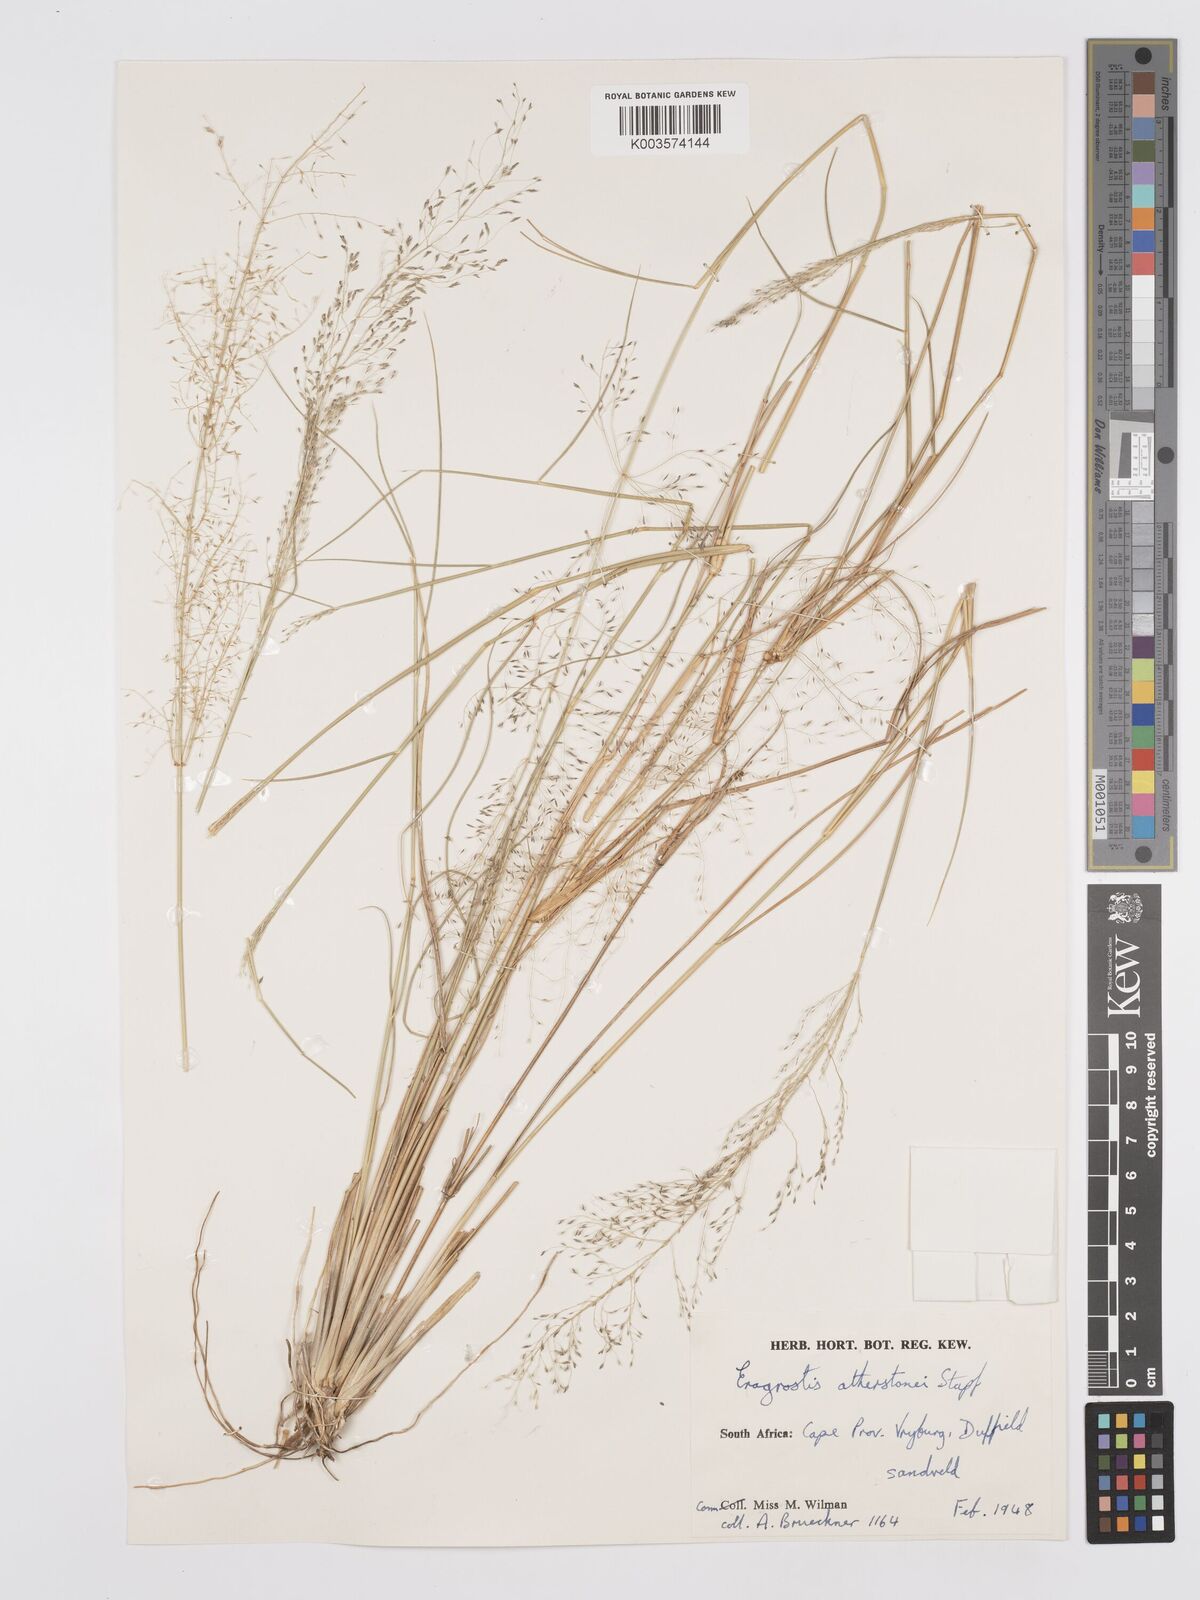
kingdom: Plantae
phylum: Tracheophyta
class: Liliopsida
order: Poales
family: Poaceae
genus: Eragrostis
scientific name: Eragrostis cylindriflora
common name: Cylinderflower lovegrass
